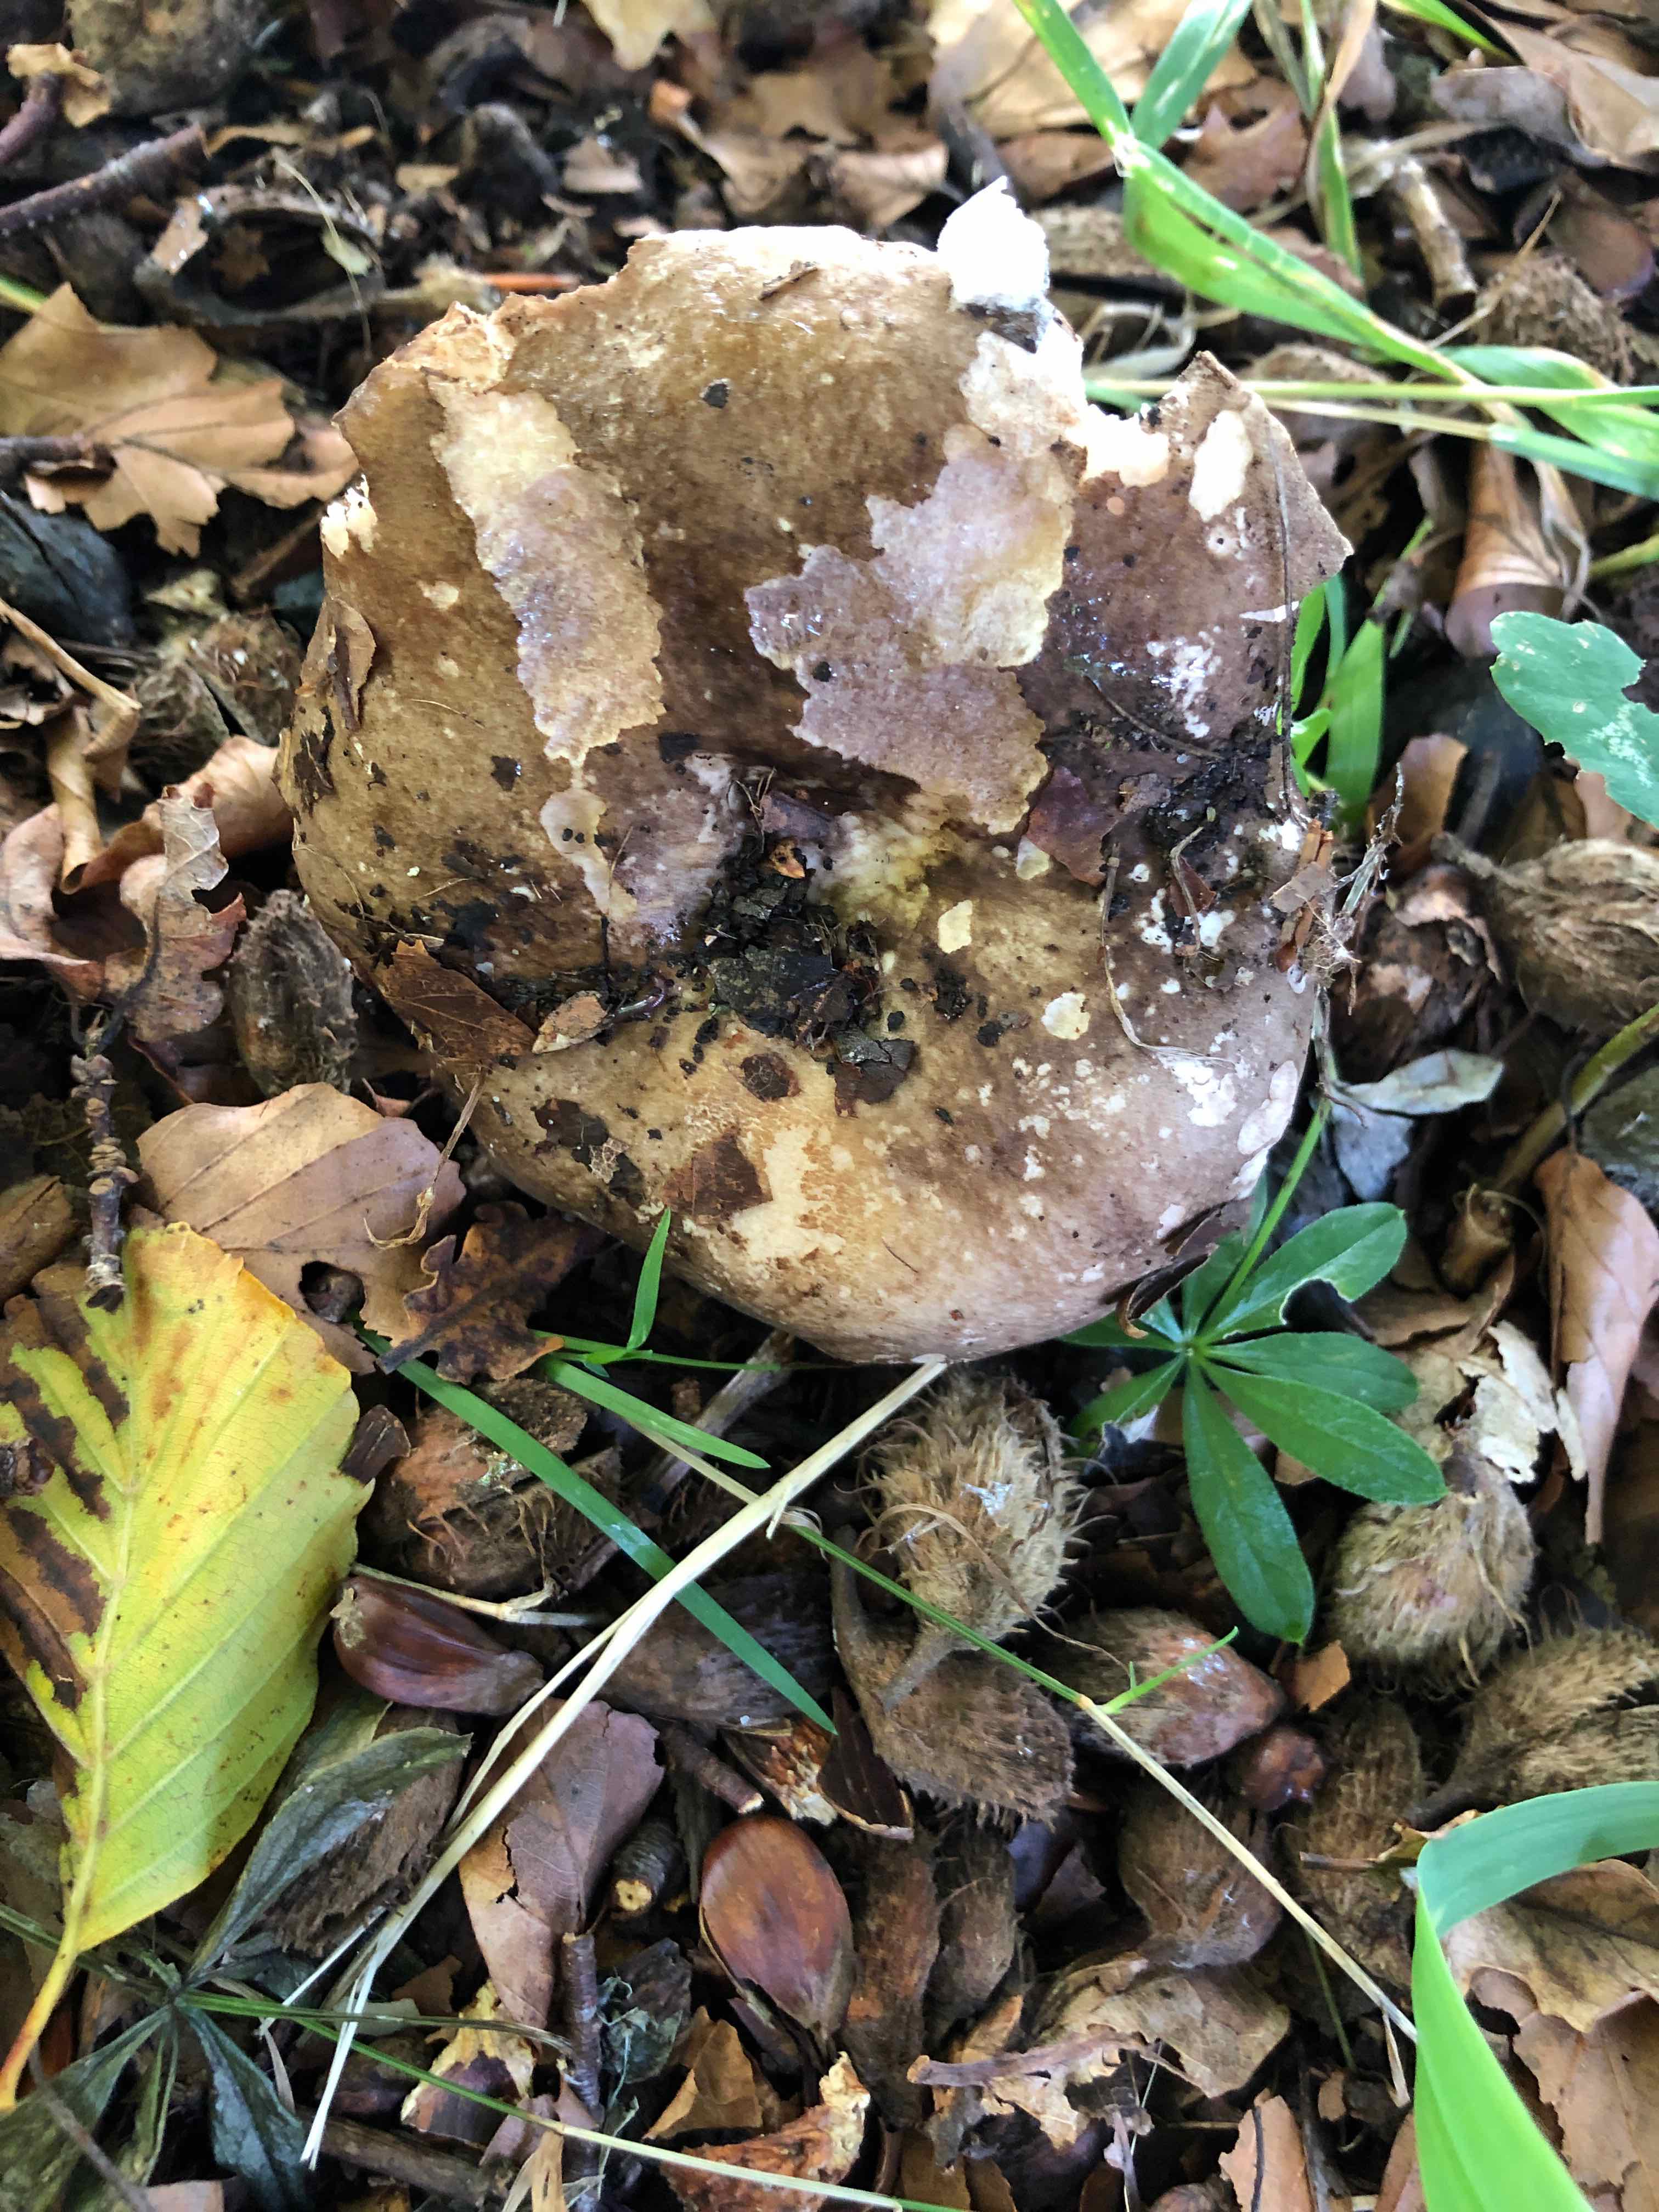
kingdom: Fungi
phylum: Basidiomycota
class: Agaricomycetes
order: Russulales
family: Russulaceae
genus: Russula
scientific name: Russula adusta
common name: sværtende skørhat
